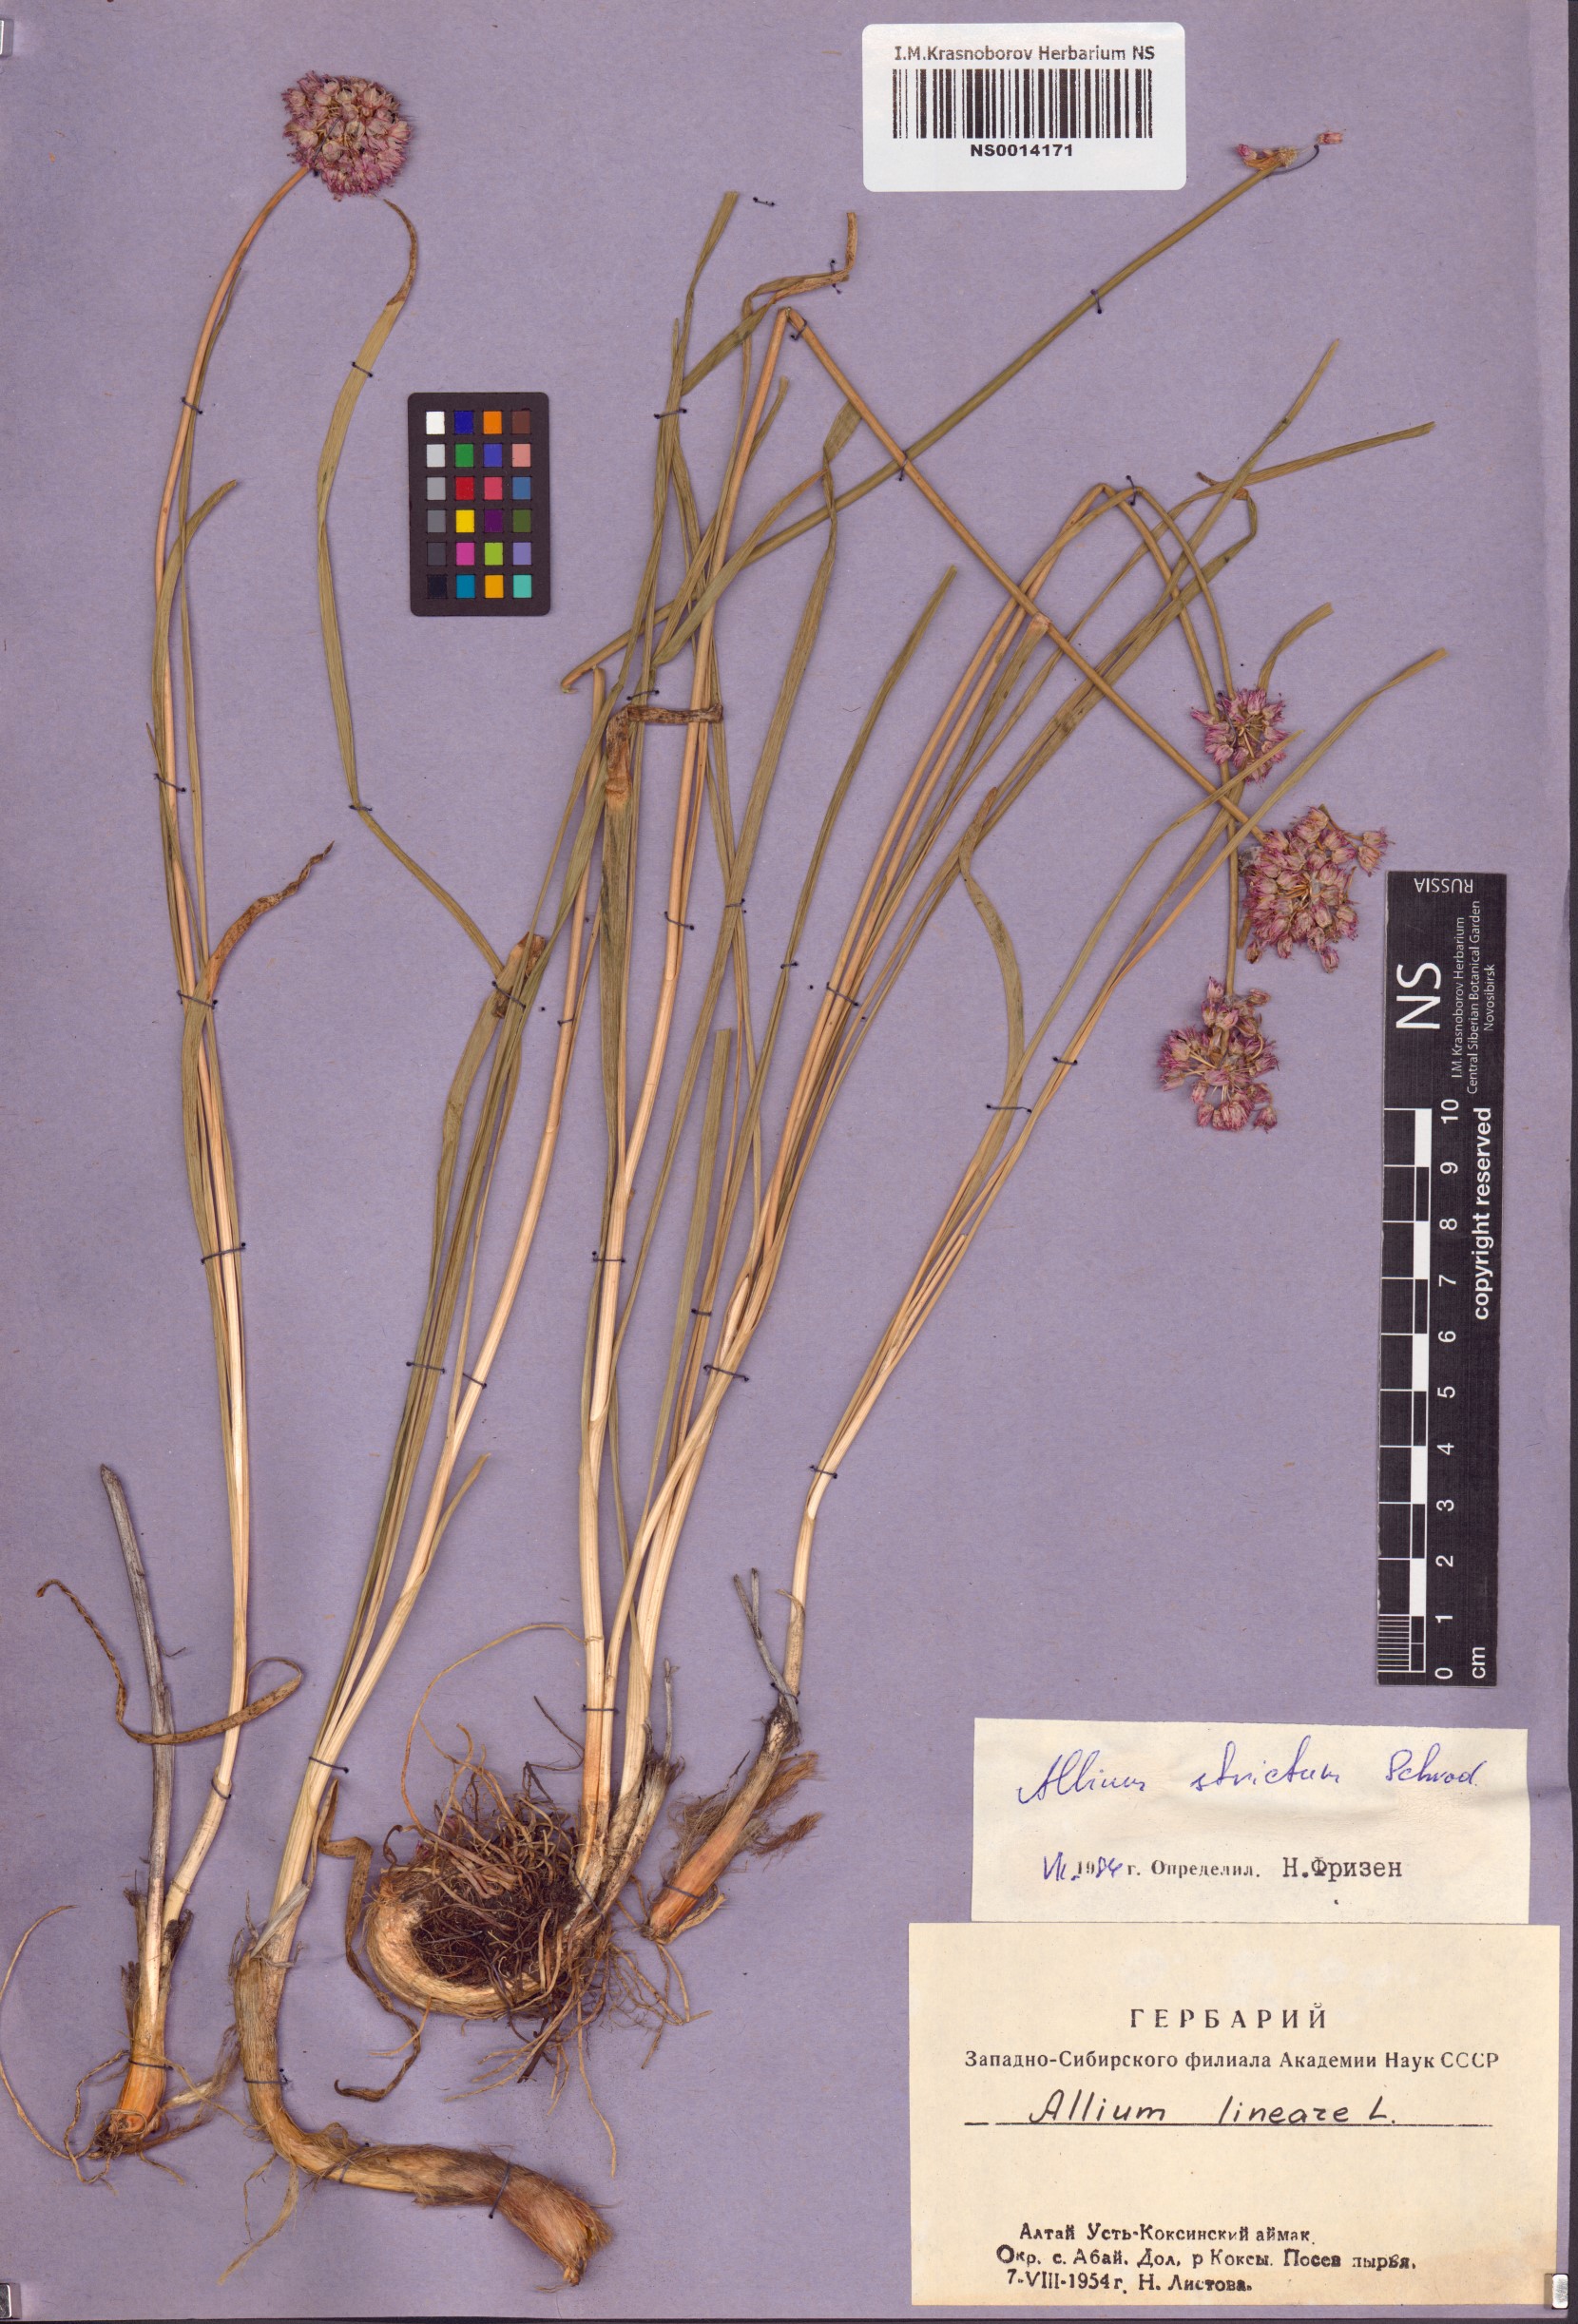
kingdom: Plantae
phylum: Tracheophyta
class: Liliopsida
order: Asparagales
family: Amaryllidaceae
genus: Allium
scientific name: Allium strictum
